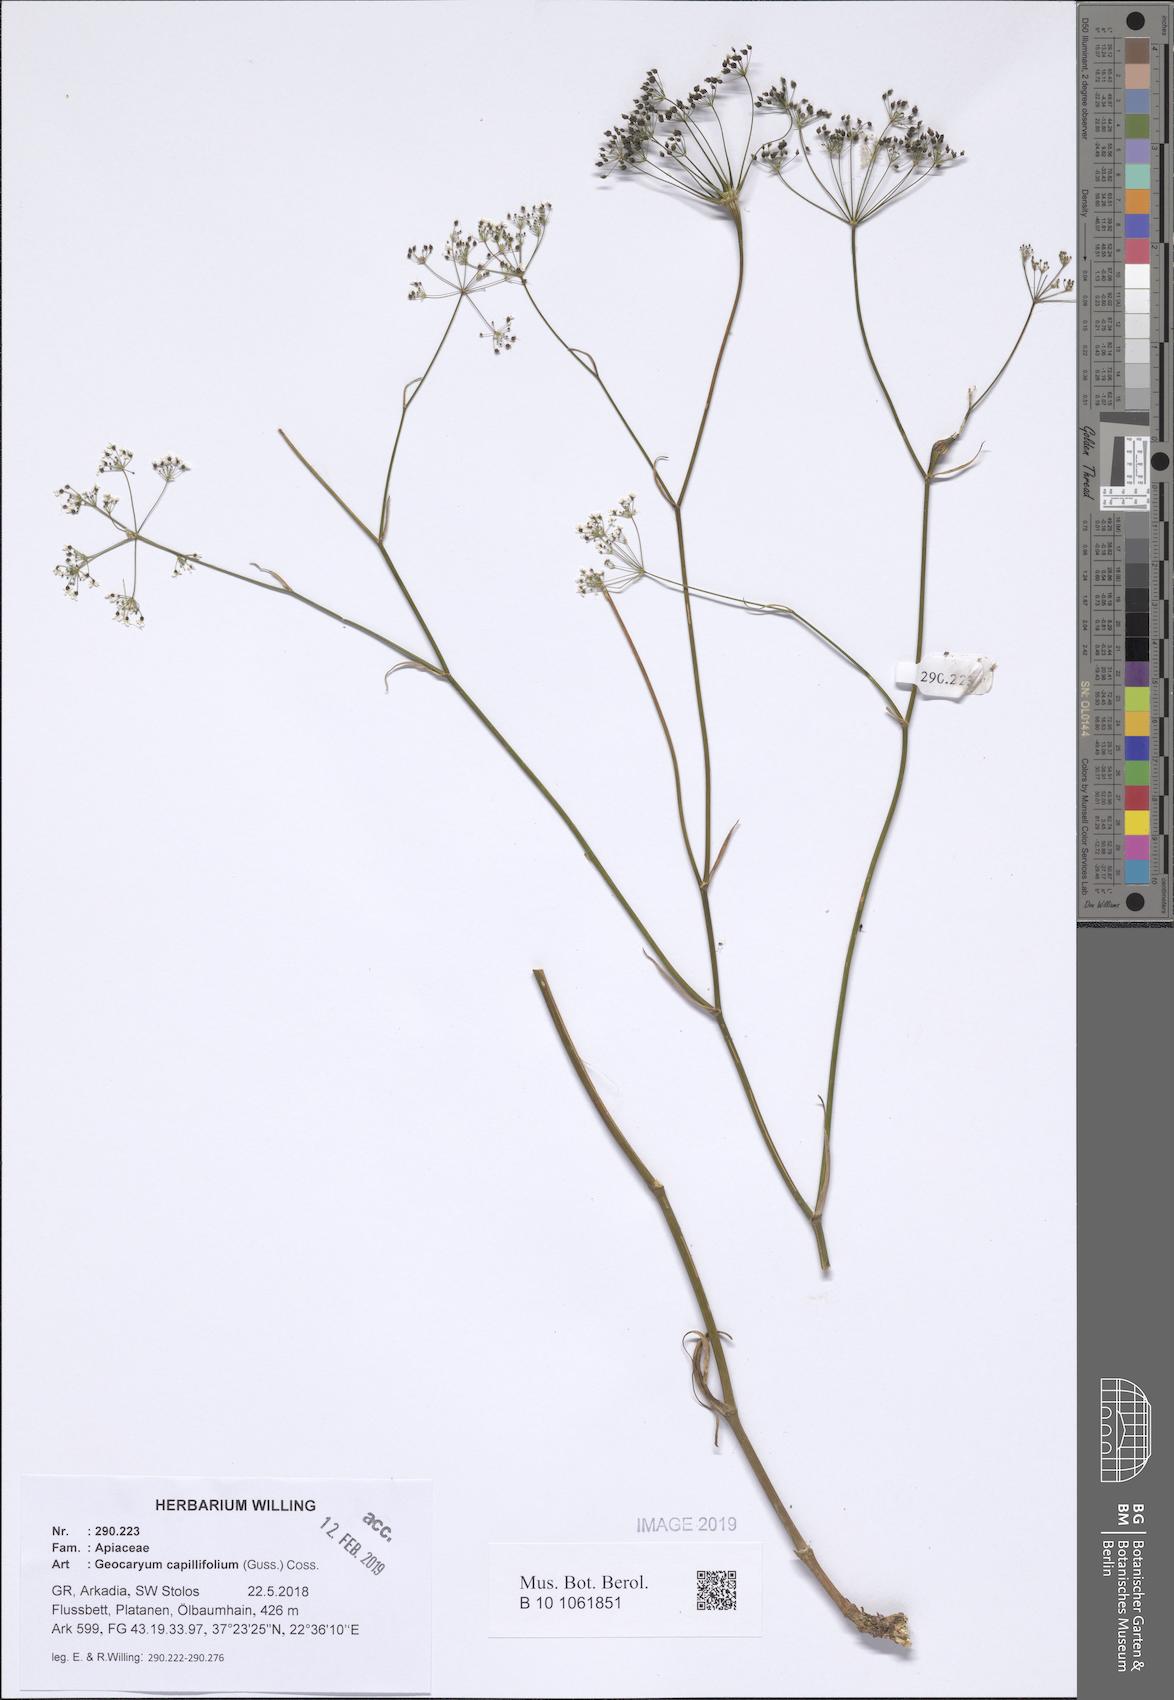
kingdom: Plantae
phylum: Tracheophyta
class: Magnoliopsida
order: Apiales
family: Apiaceae
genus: Geocaryum
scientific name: Geocaryum capillifolium
